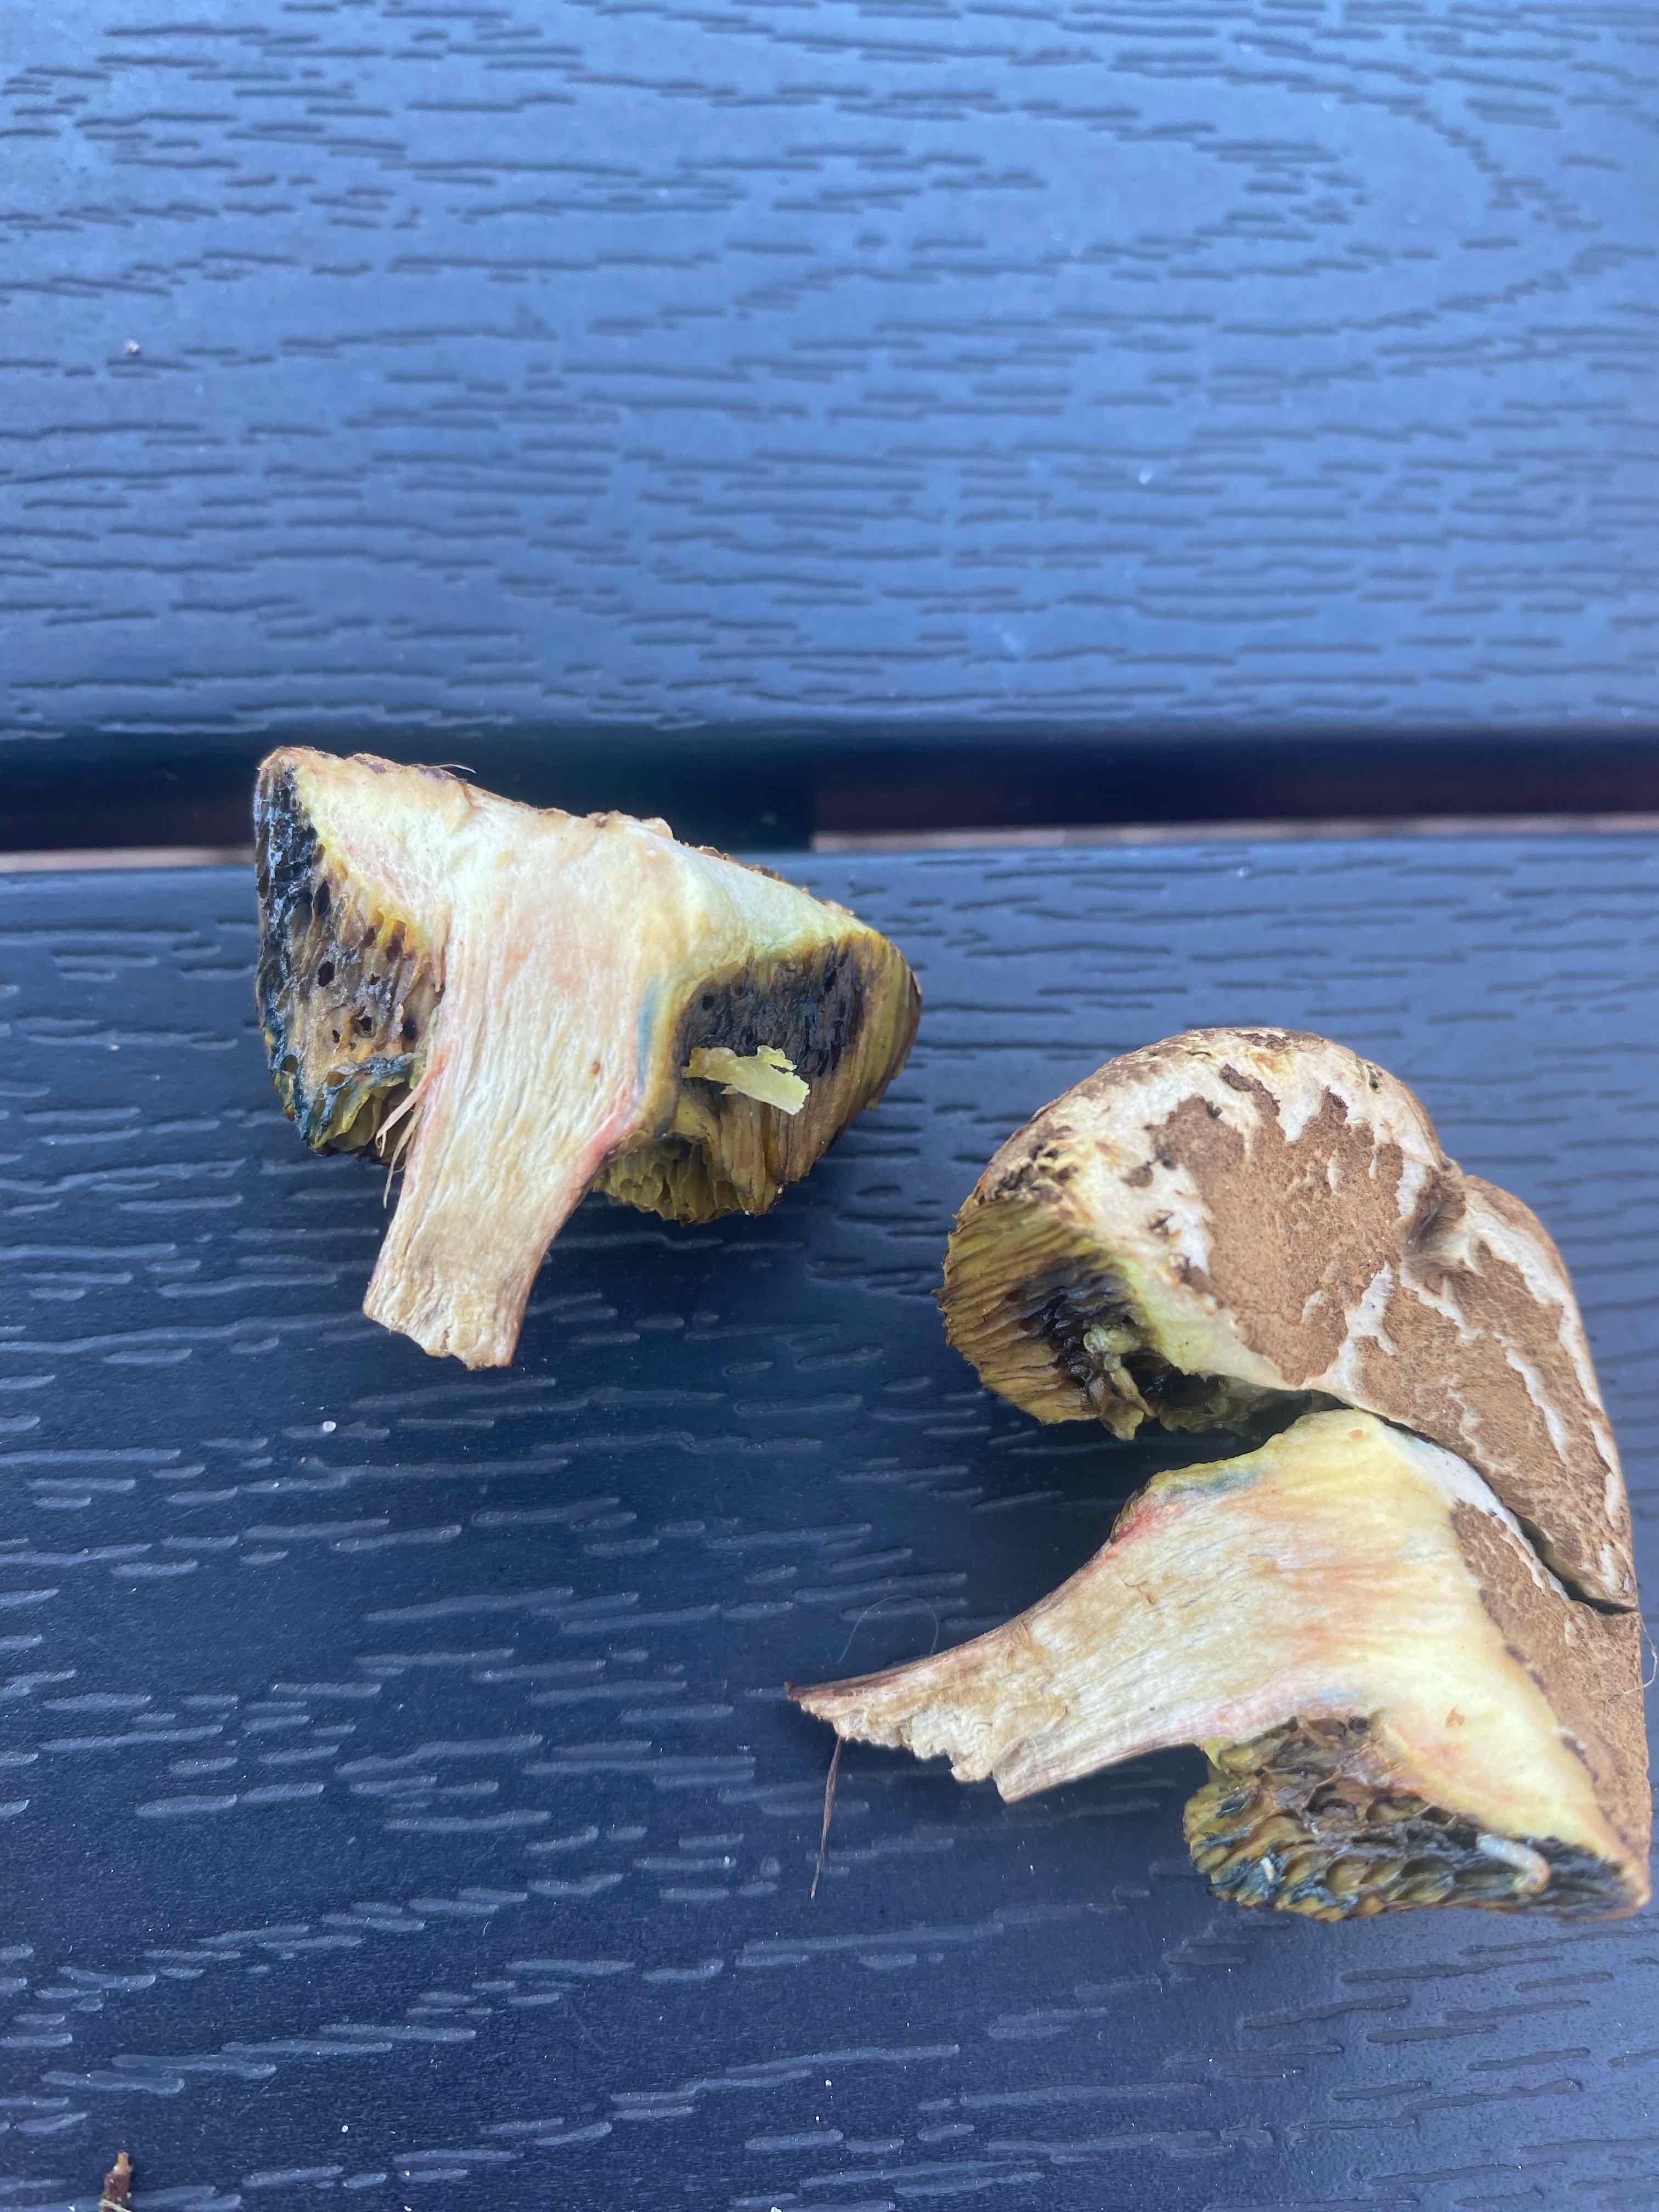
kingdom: Fungi
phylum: Basidiomycota
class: Agaricomycetes
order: Boletales
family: Boletaceae
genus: Xerocomellus
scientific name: Xerocomellus porosporus
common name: hvidsprukken rørhat
